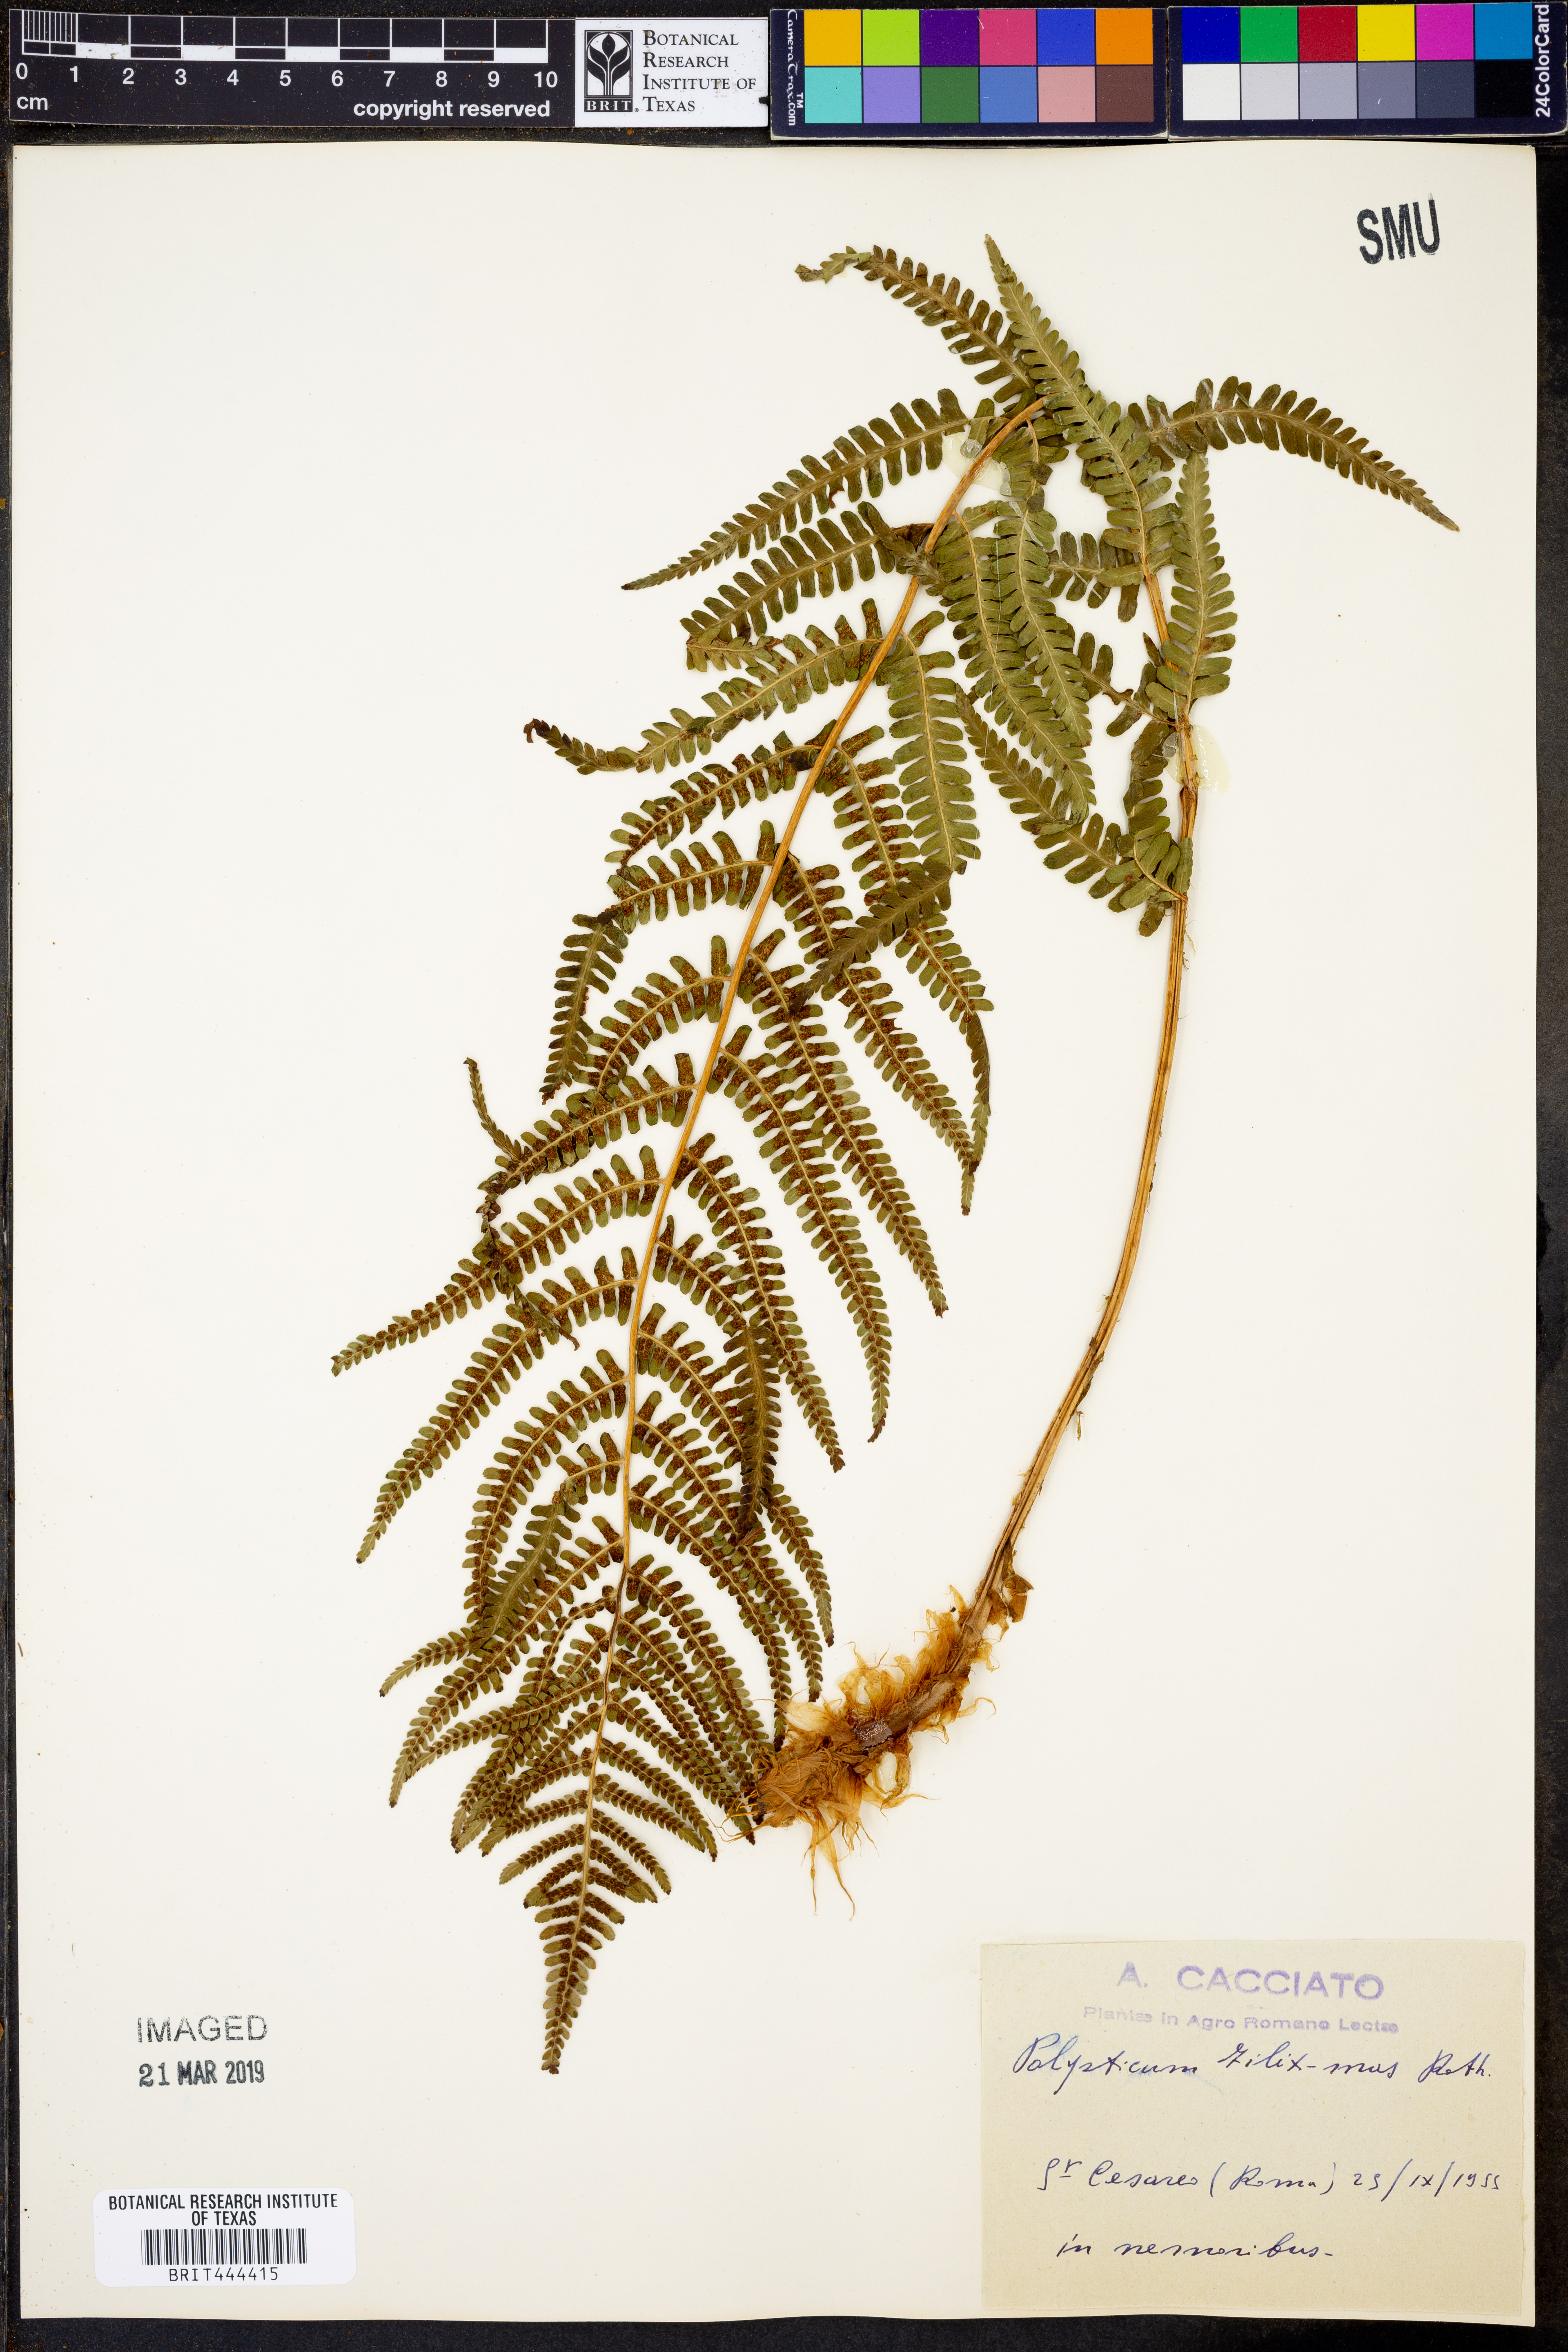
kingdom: Plantae
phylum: Tracheophyta
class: Polypodiopsida
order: Polypodiales
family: Dryopteridaceae
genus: Dryopteris
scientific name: Dryopteris filix-mas
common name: Male fern
